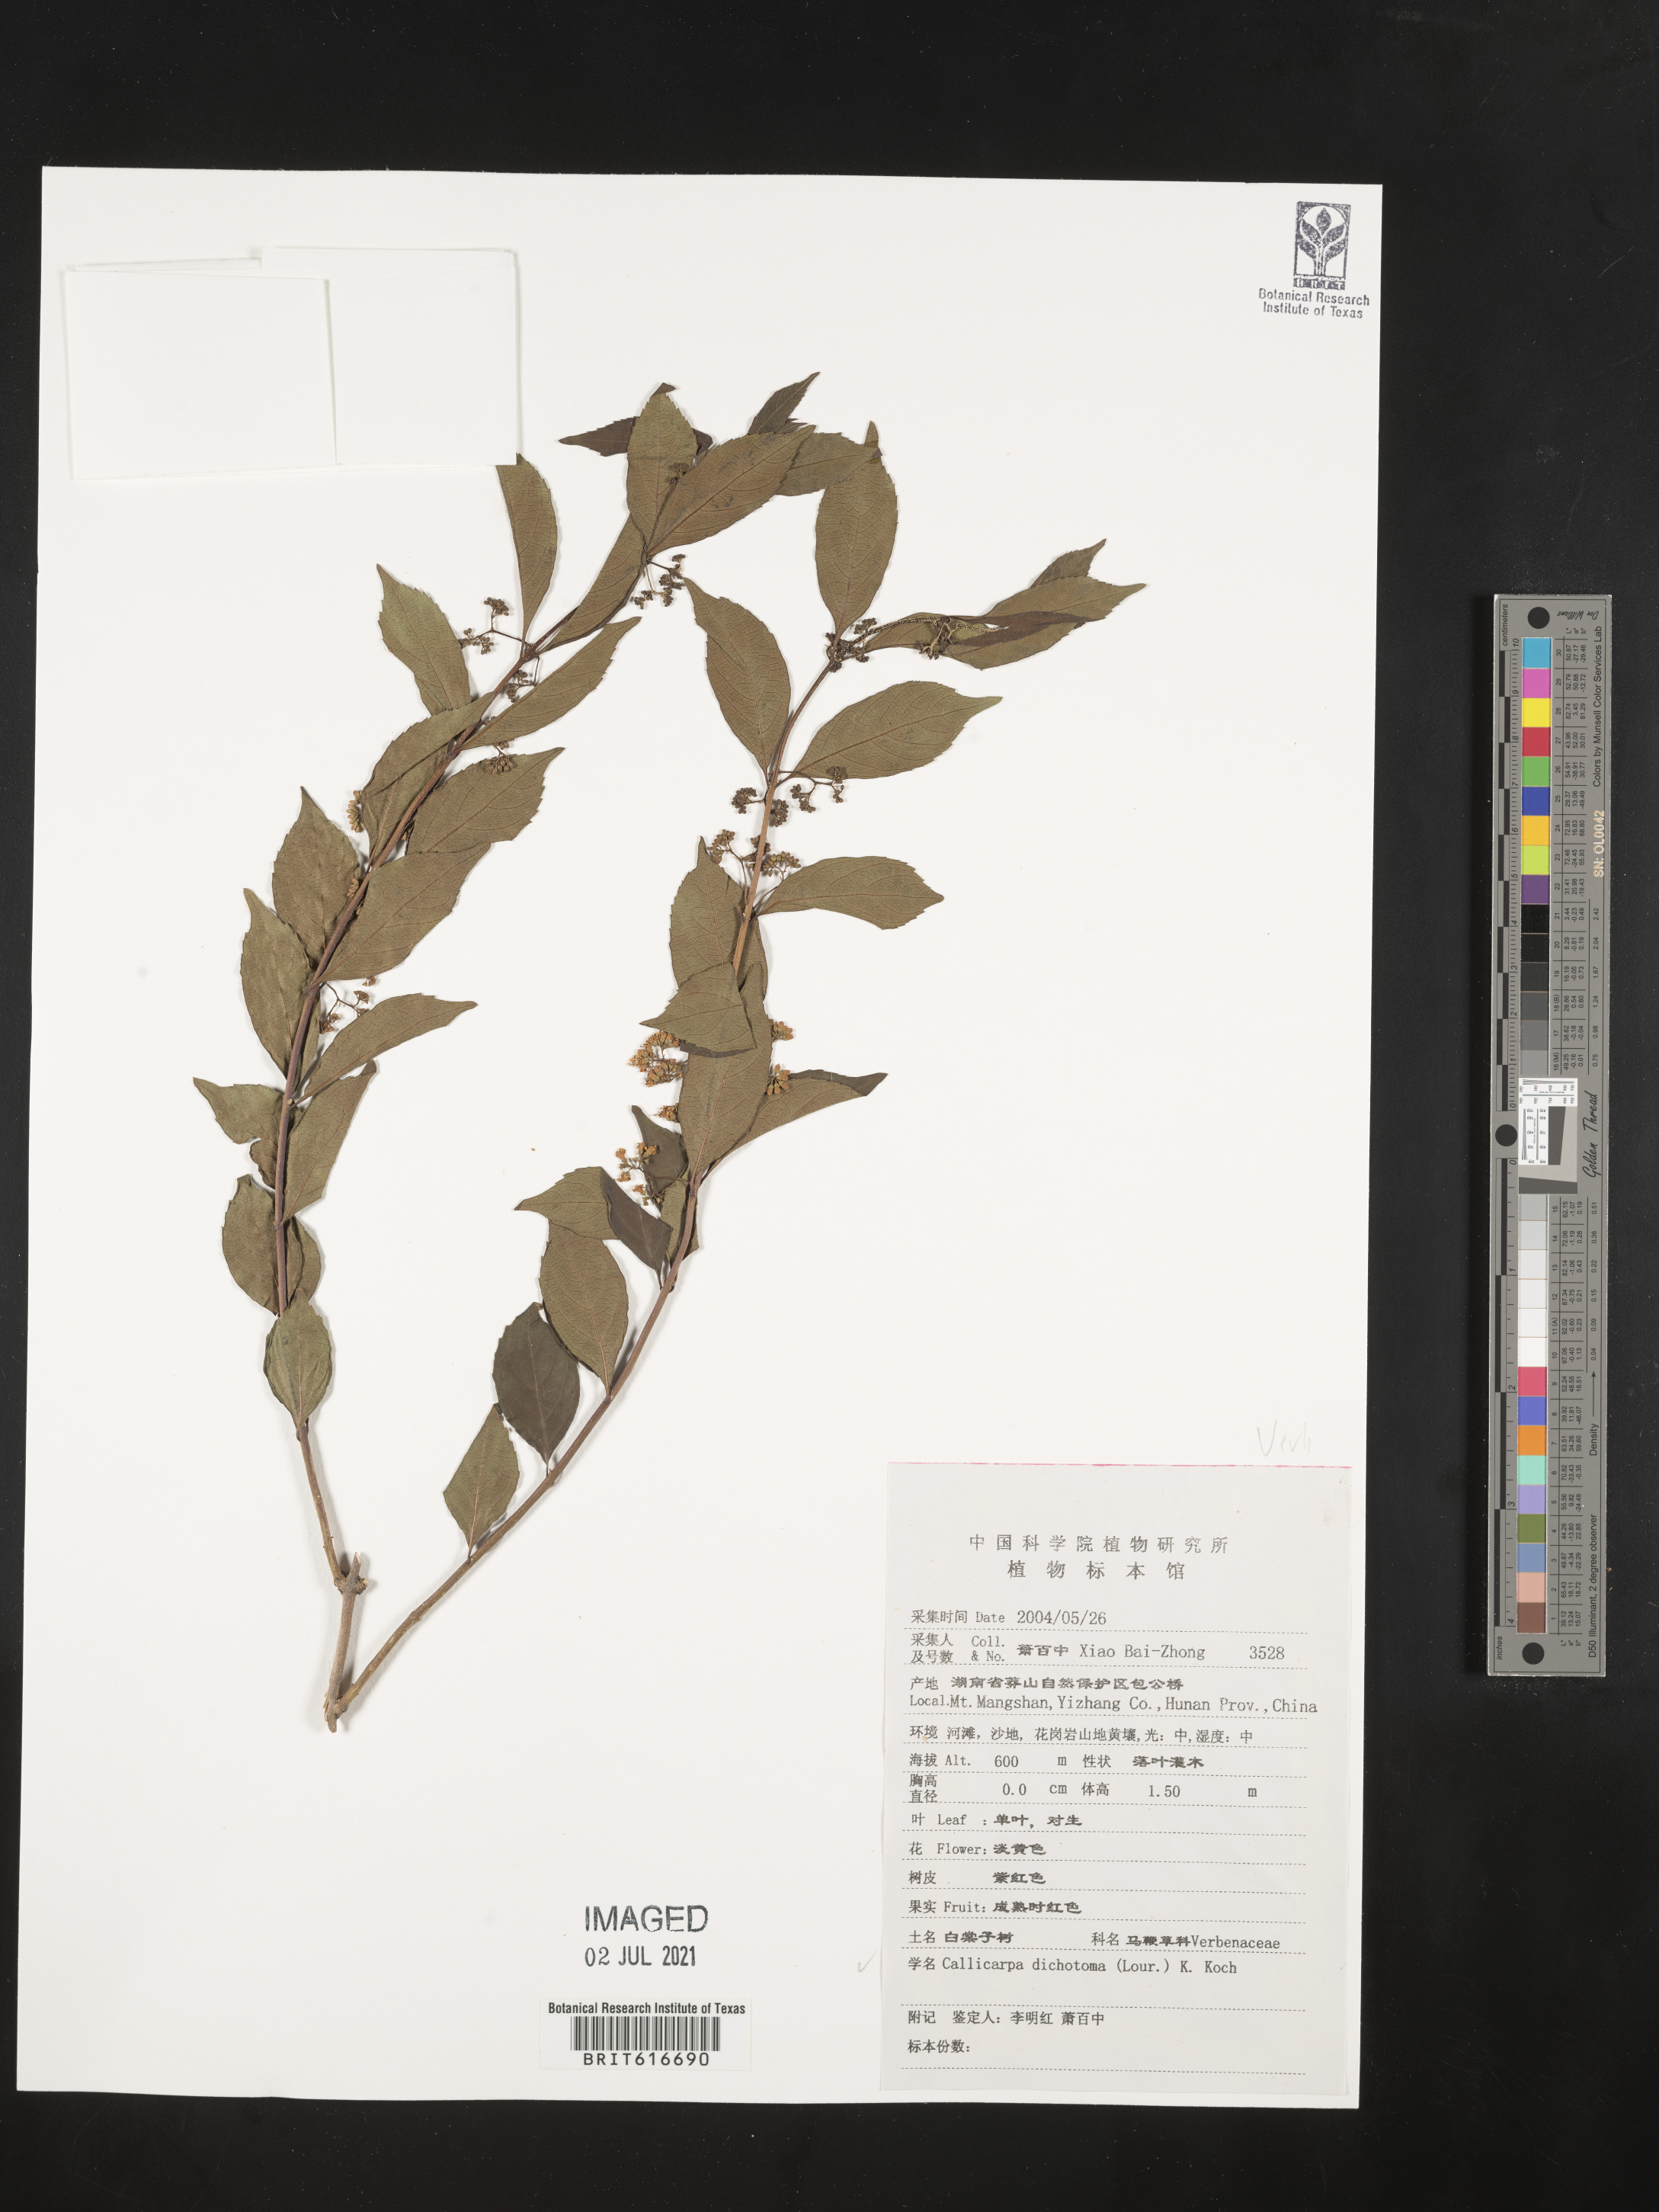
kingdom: Plantae
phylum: Tracheophyta
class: Magnoliopsida
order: Lamiales
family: Lamiaceae
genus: Callicarpa
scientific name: Callicarpa dichotoma
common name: Purple beauty-berry
